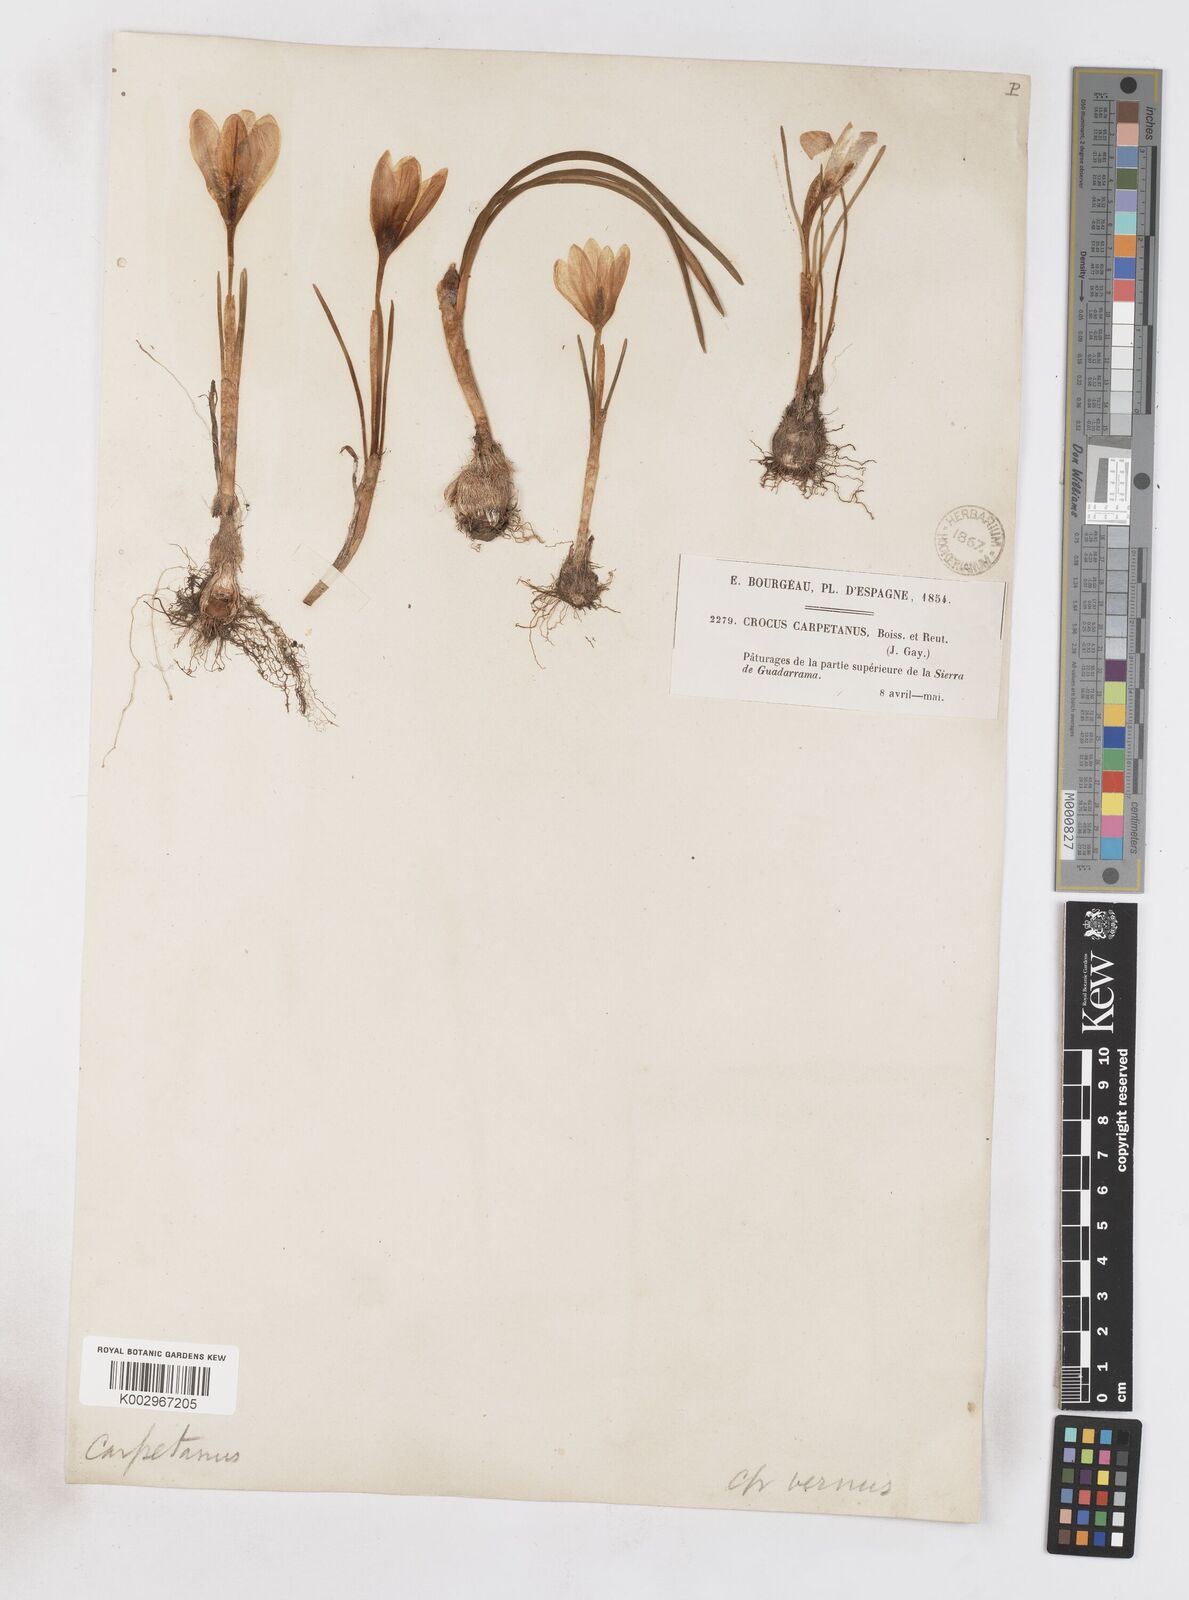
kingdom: Plantae
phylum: Tracheophyta
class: Liliopsida
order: Asparagales
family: Iridaceae
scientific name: Iridaceae
